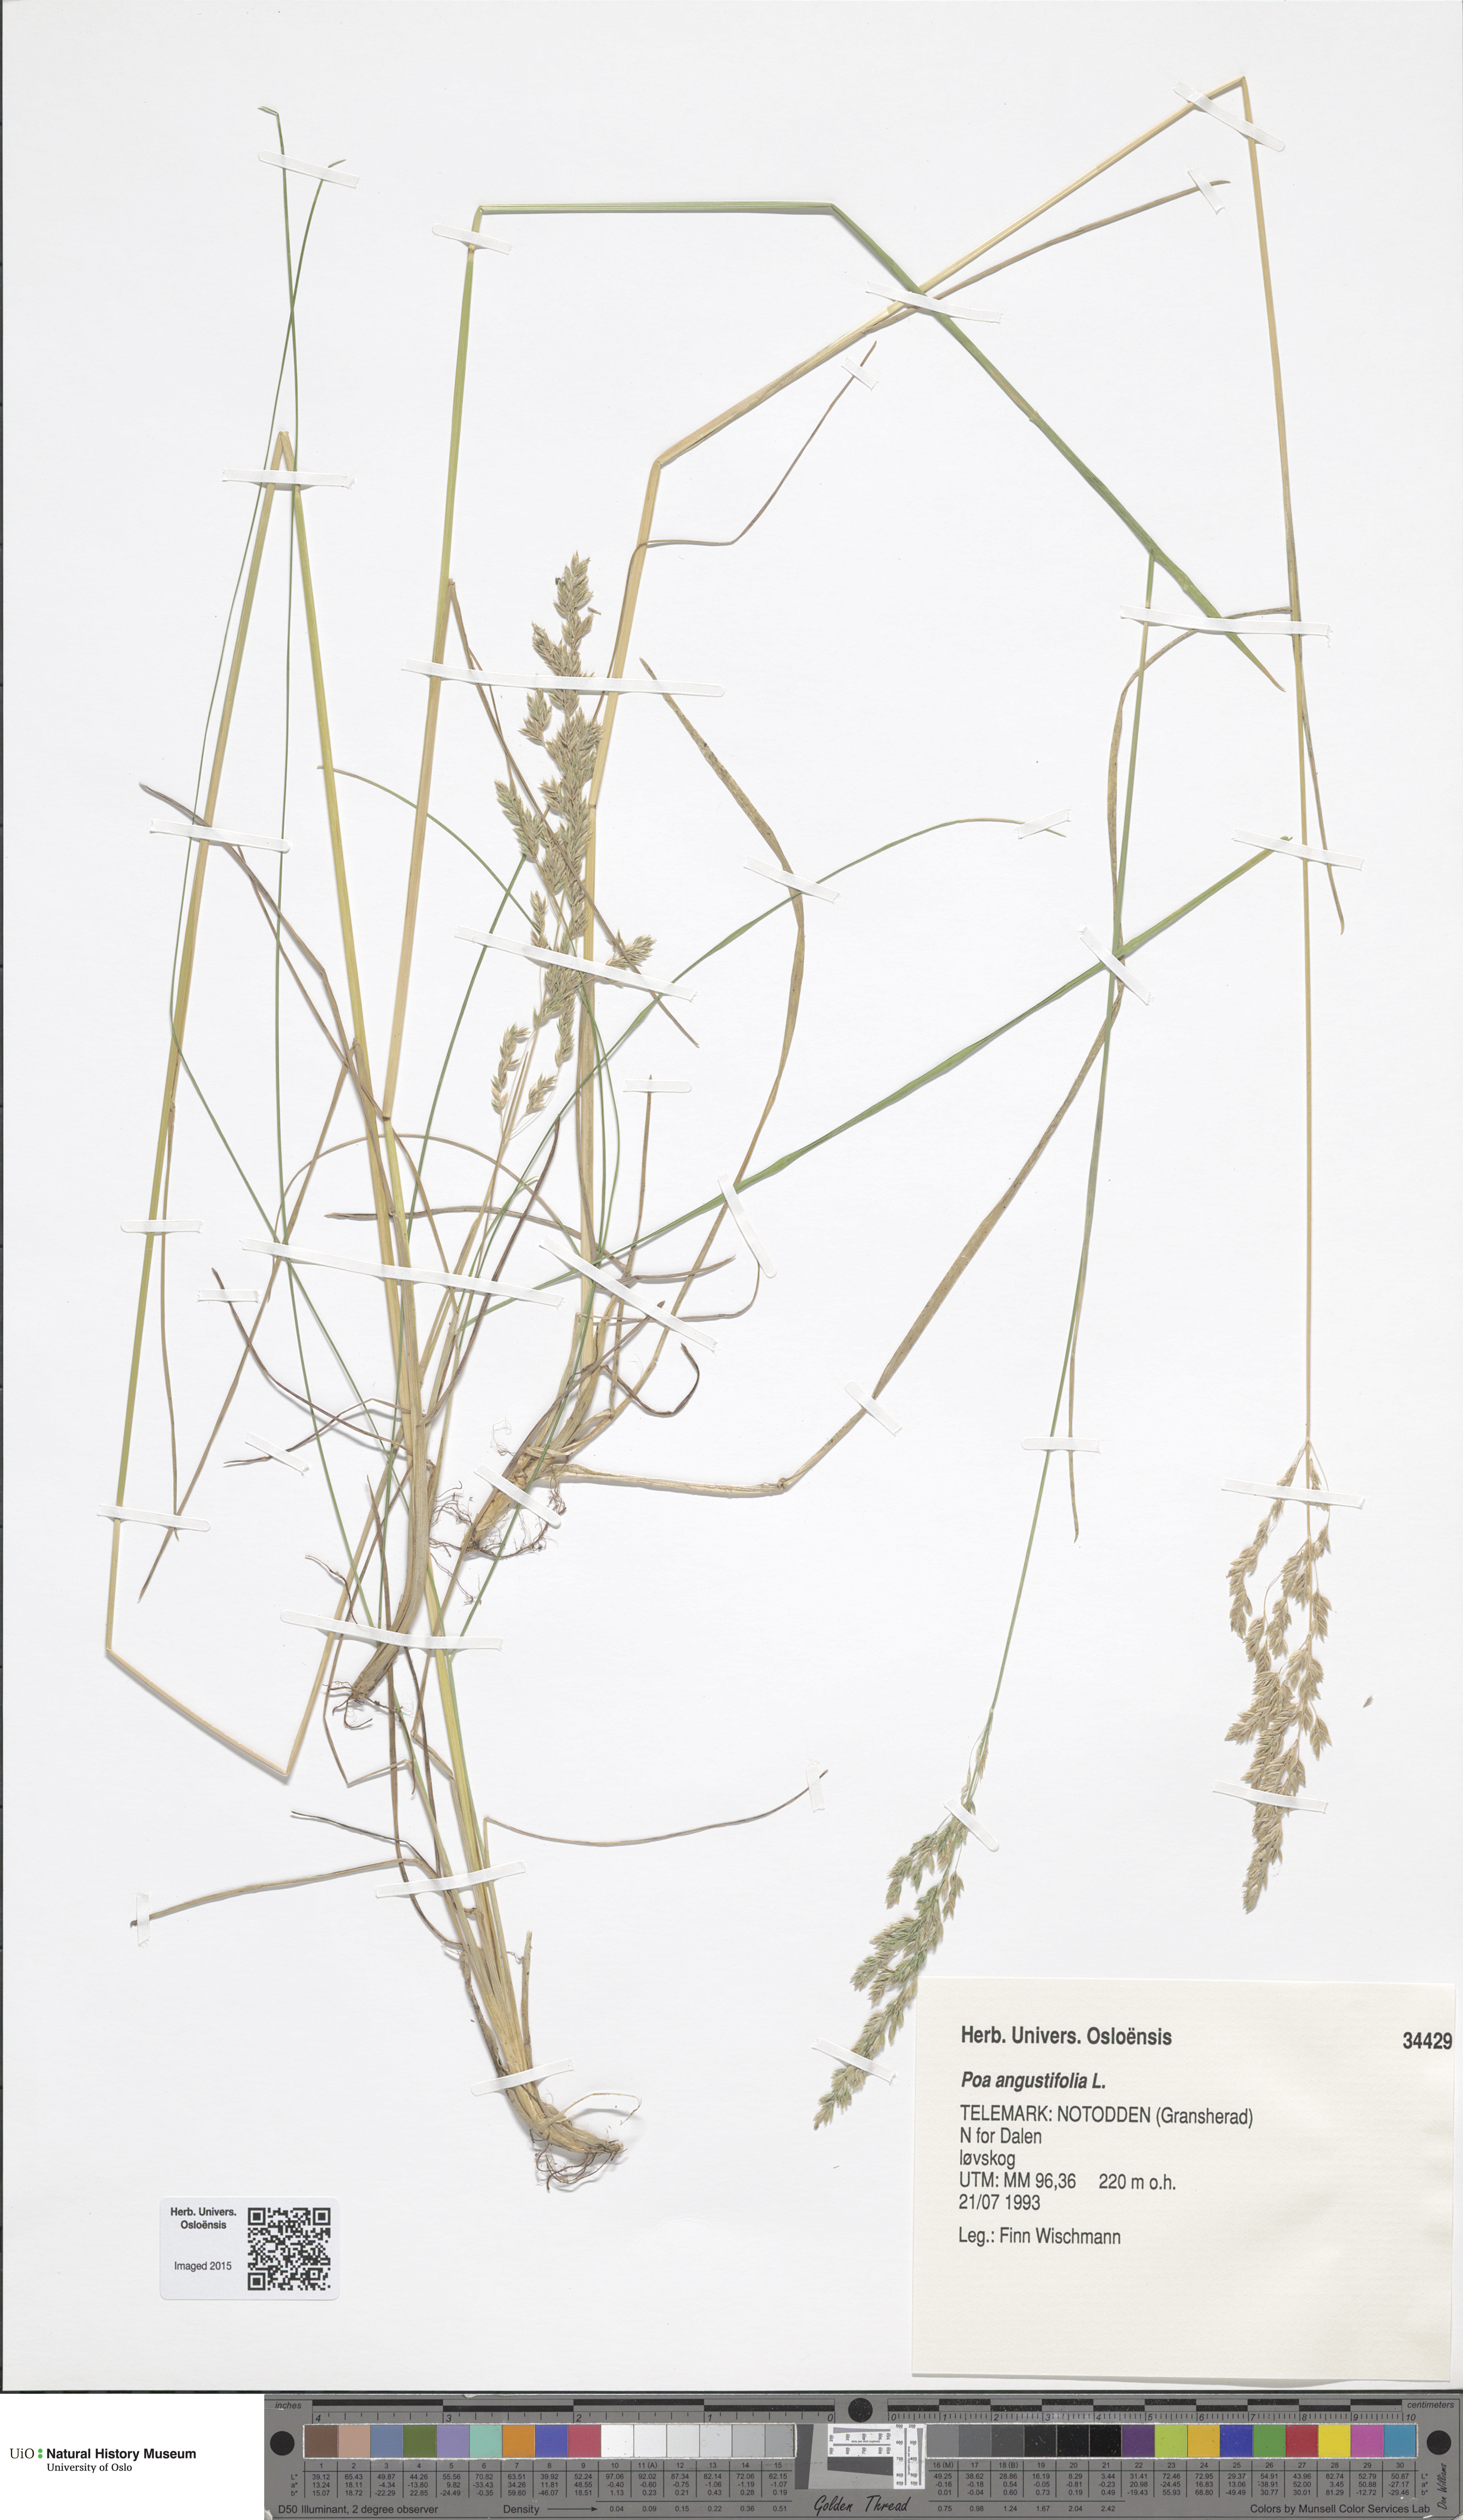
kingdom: Plantae
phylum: Tracheophyta
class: Liliopsida
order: Poales
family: Poaceae
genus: Poa
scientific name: Poa angustifolia
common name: Narrow-leaved meadow-grass
